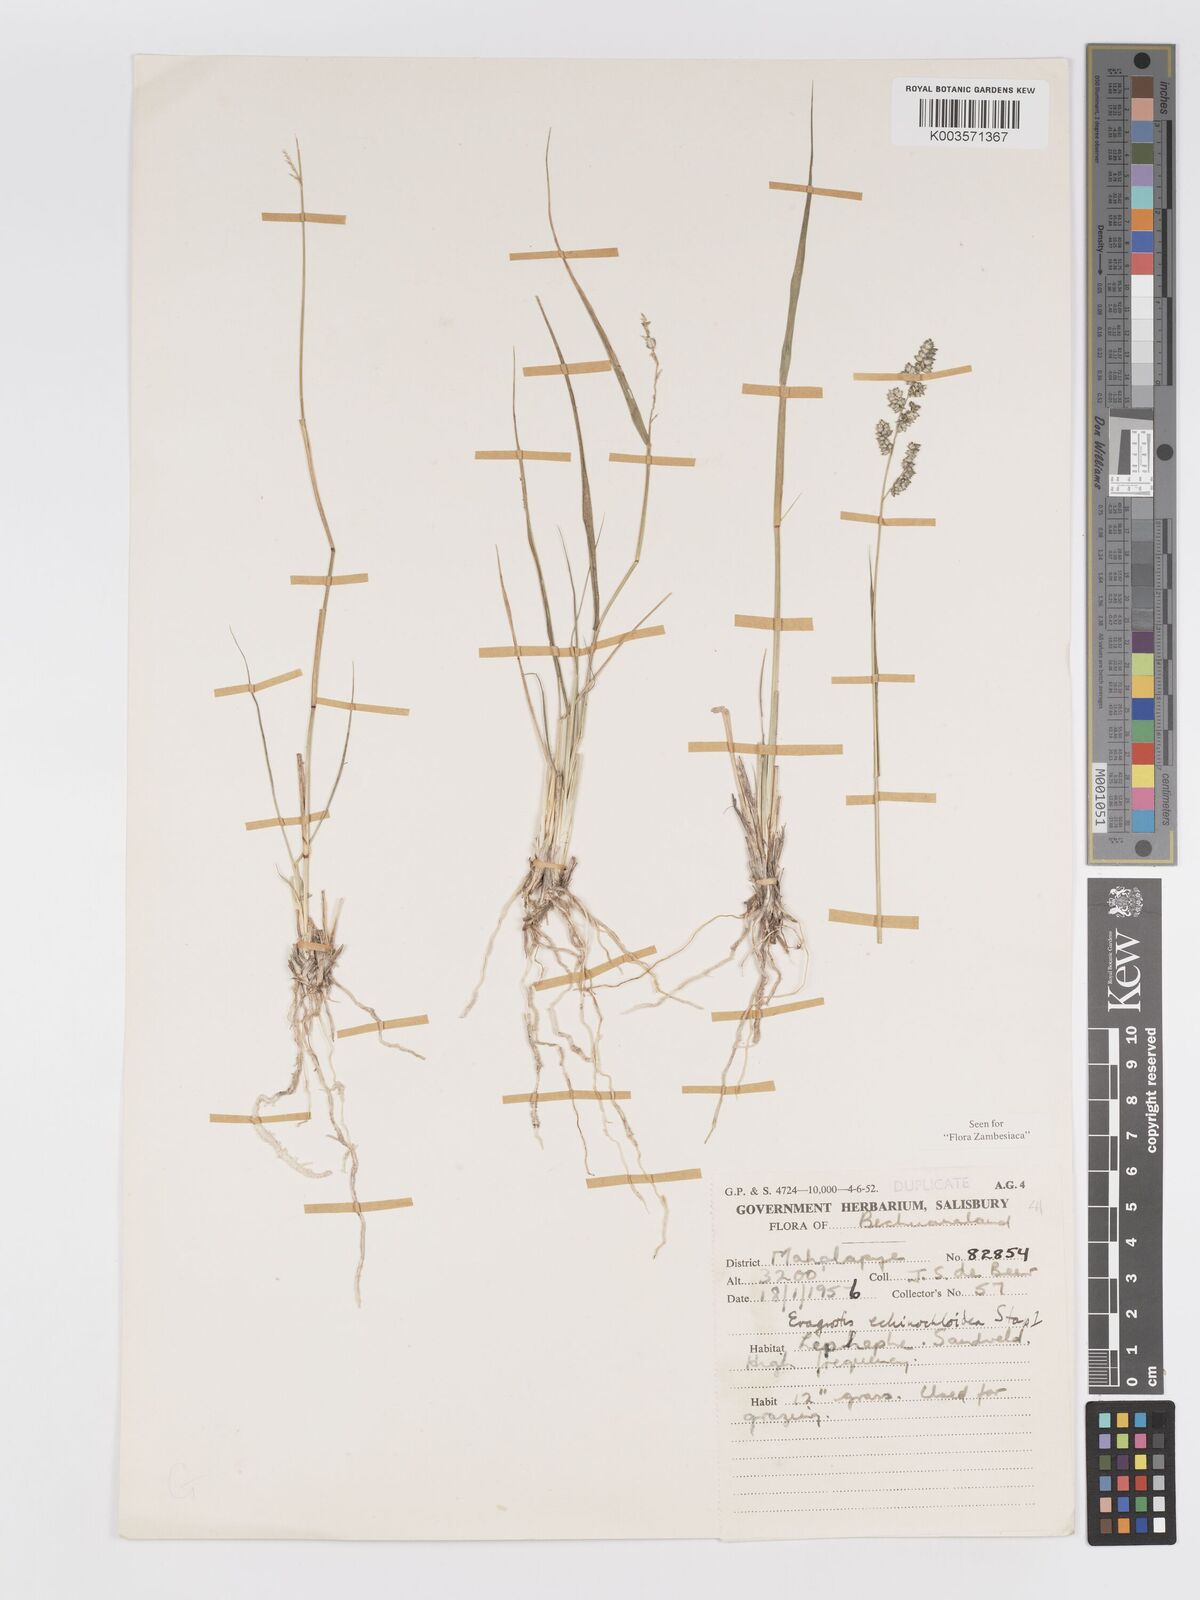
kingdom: Plantae
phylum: Tracheophyta
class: Liliopsida
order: Poales
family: Poaceae
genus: Eragrostis
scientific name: Eragrostis echinochloidea
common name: African lovegrass
